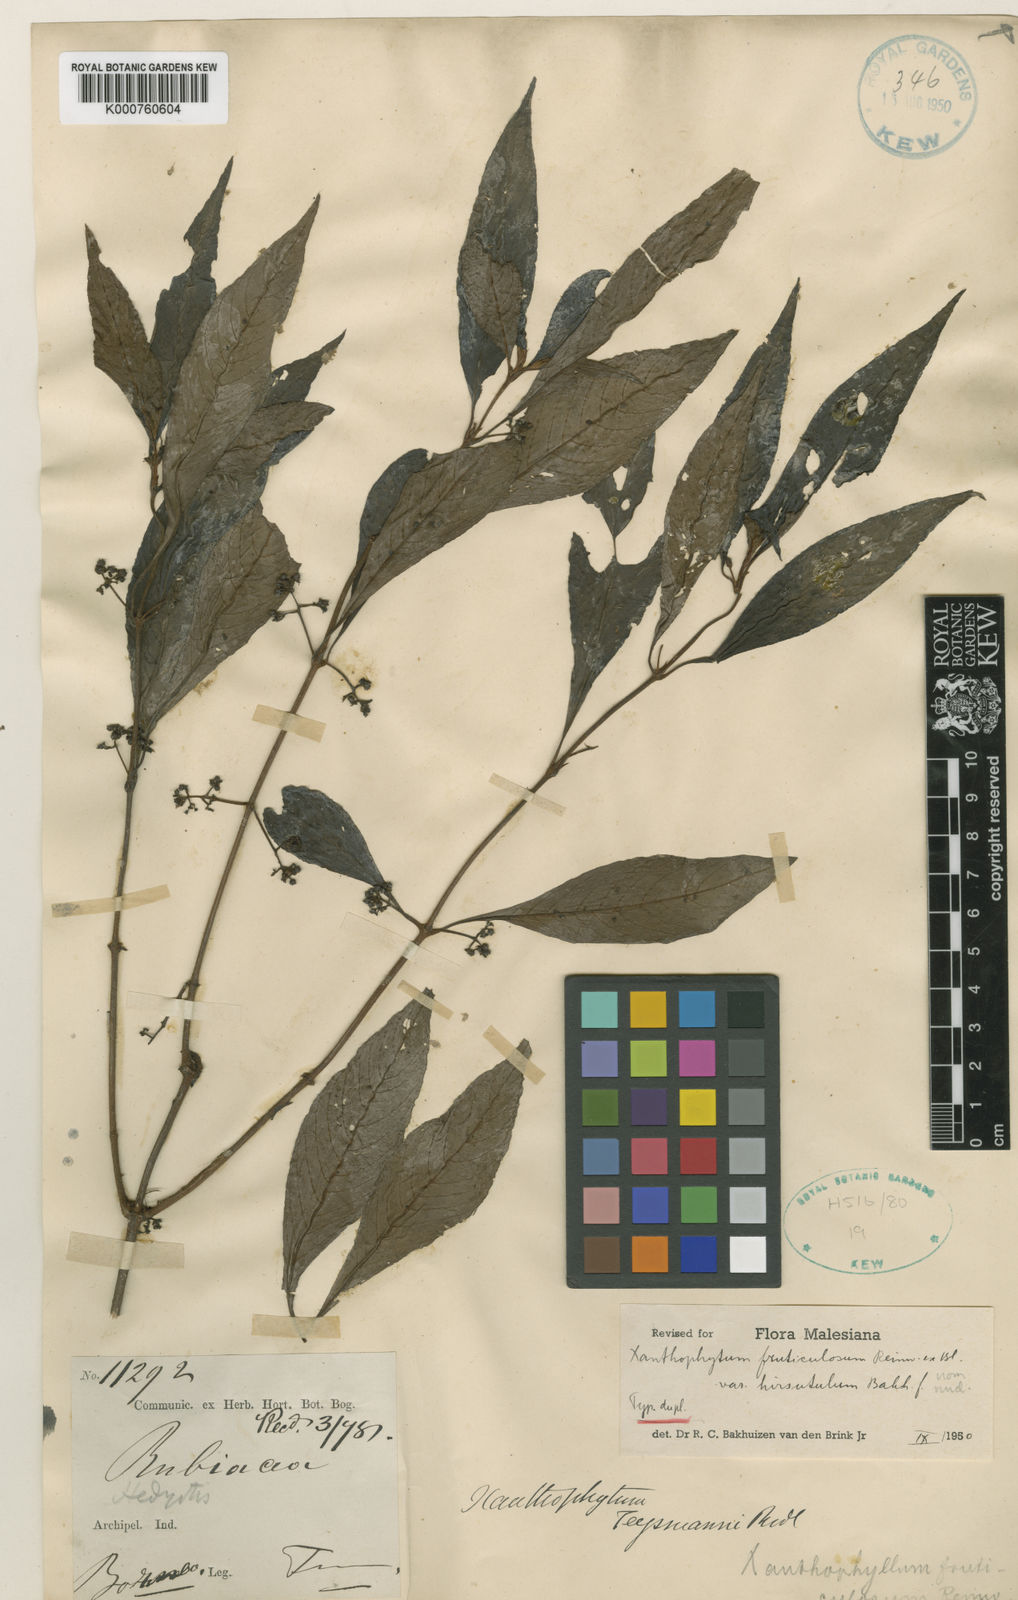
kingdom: Plantae
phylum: Tracheophyta
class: Magnoliopsida
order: Gentianales
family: Rubiaceae
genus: Xanthophytum
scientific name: Xanthophytum fruticulosum
